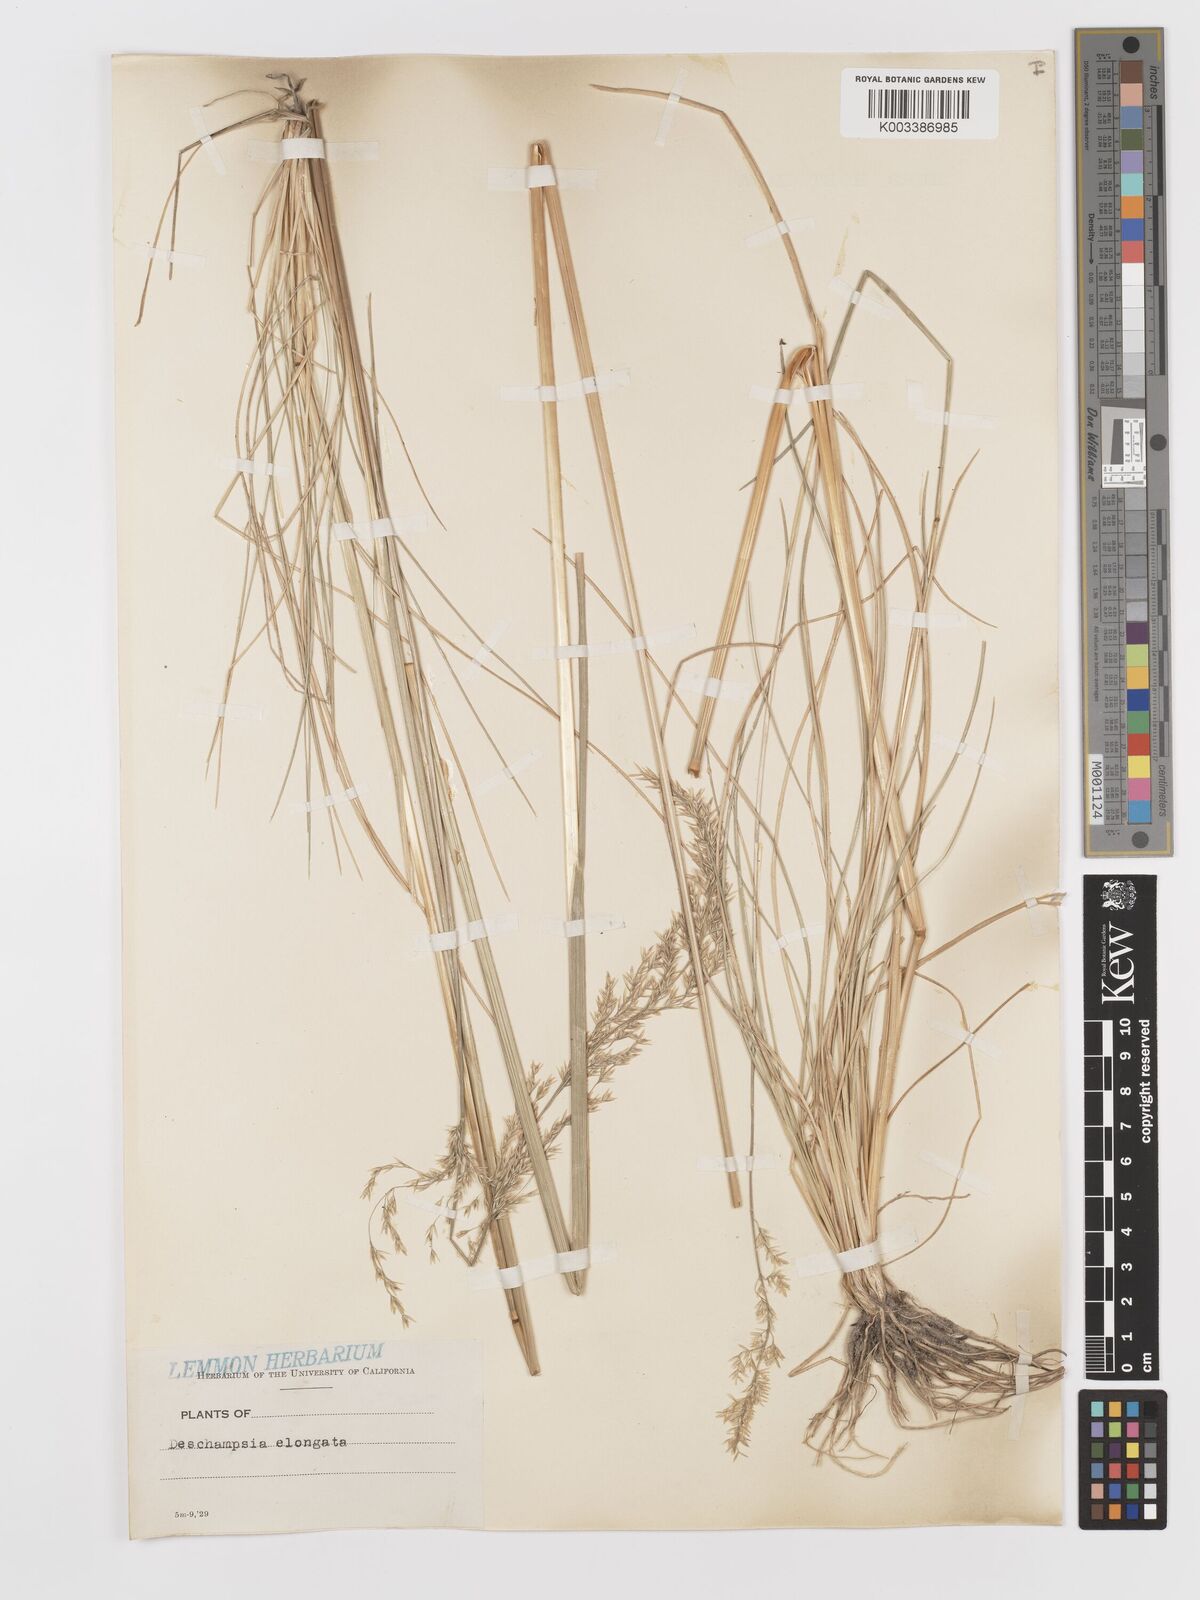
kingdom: Plantae
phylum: Tracheophyta
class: Liliopsida
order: Poales
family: Poaceae
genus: Deschampsia
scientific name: Deschampsia elongata
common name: Slender hairgrass
